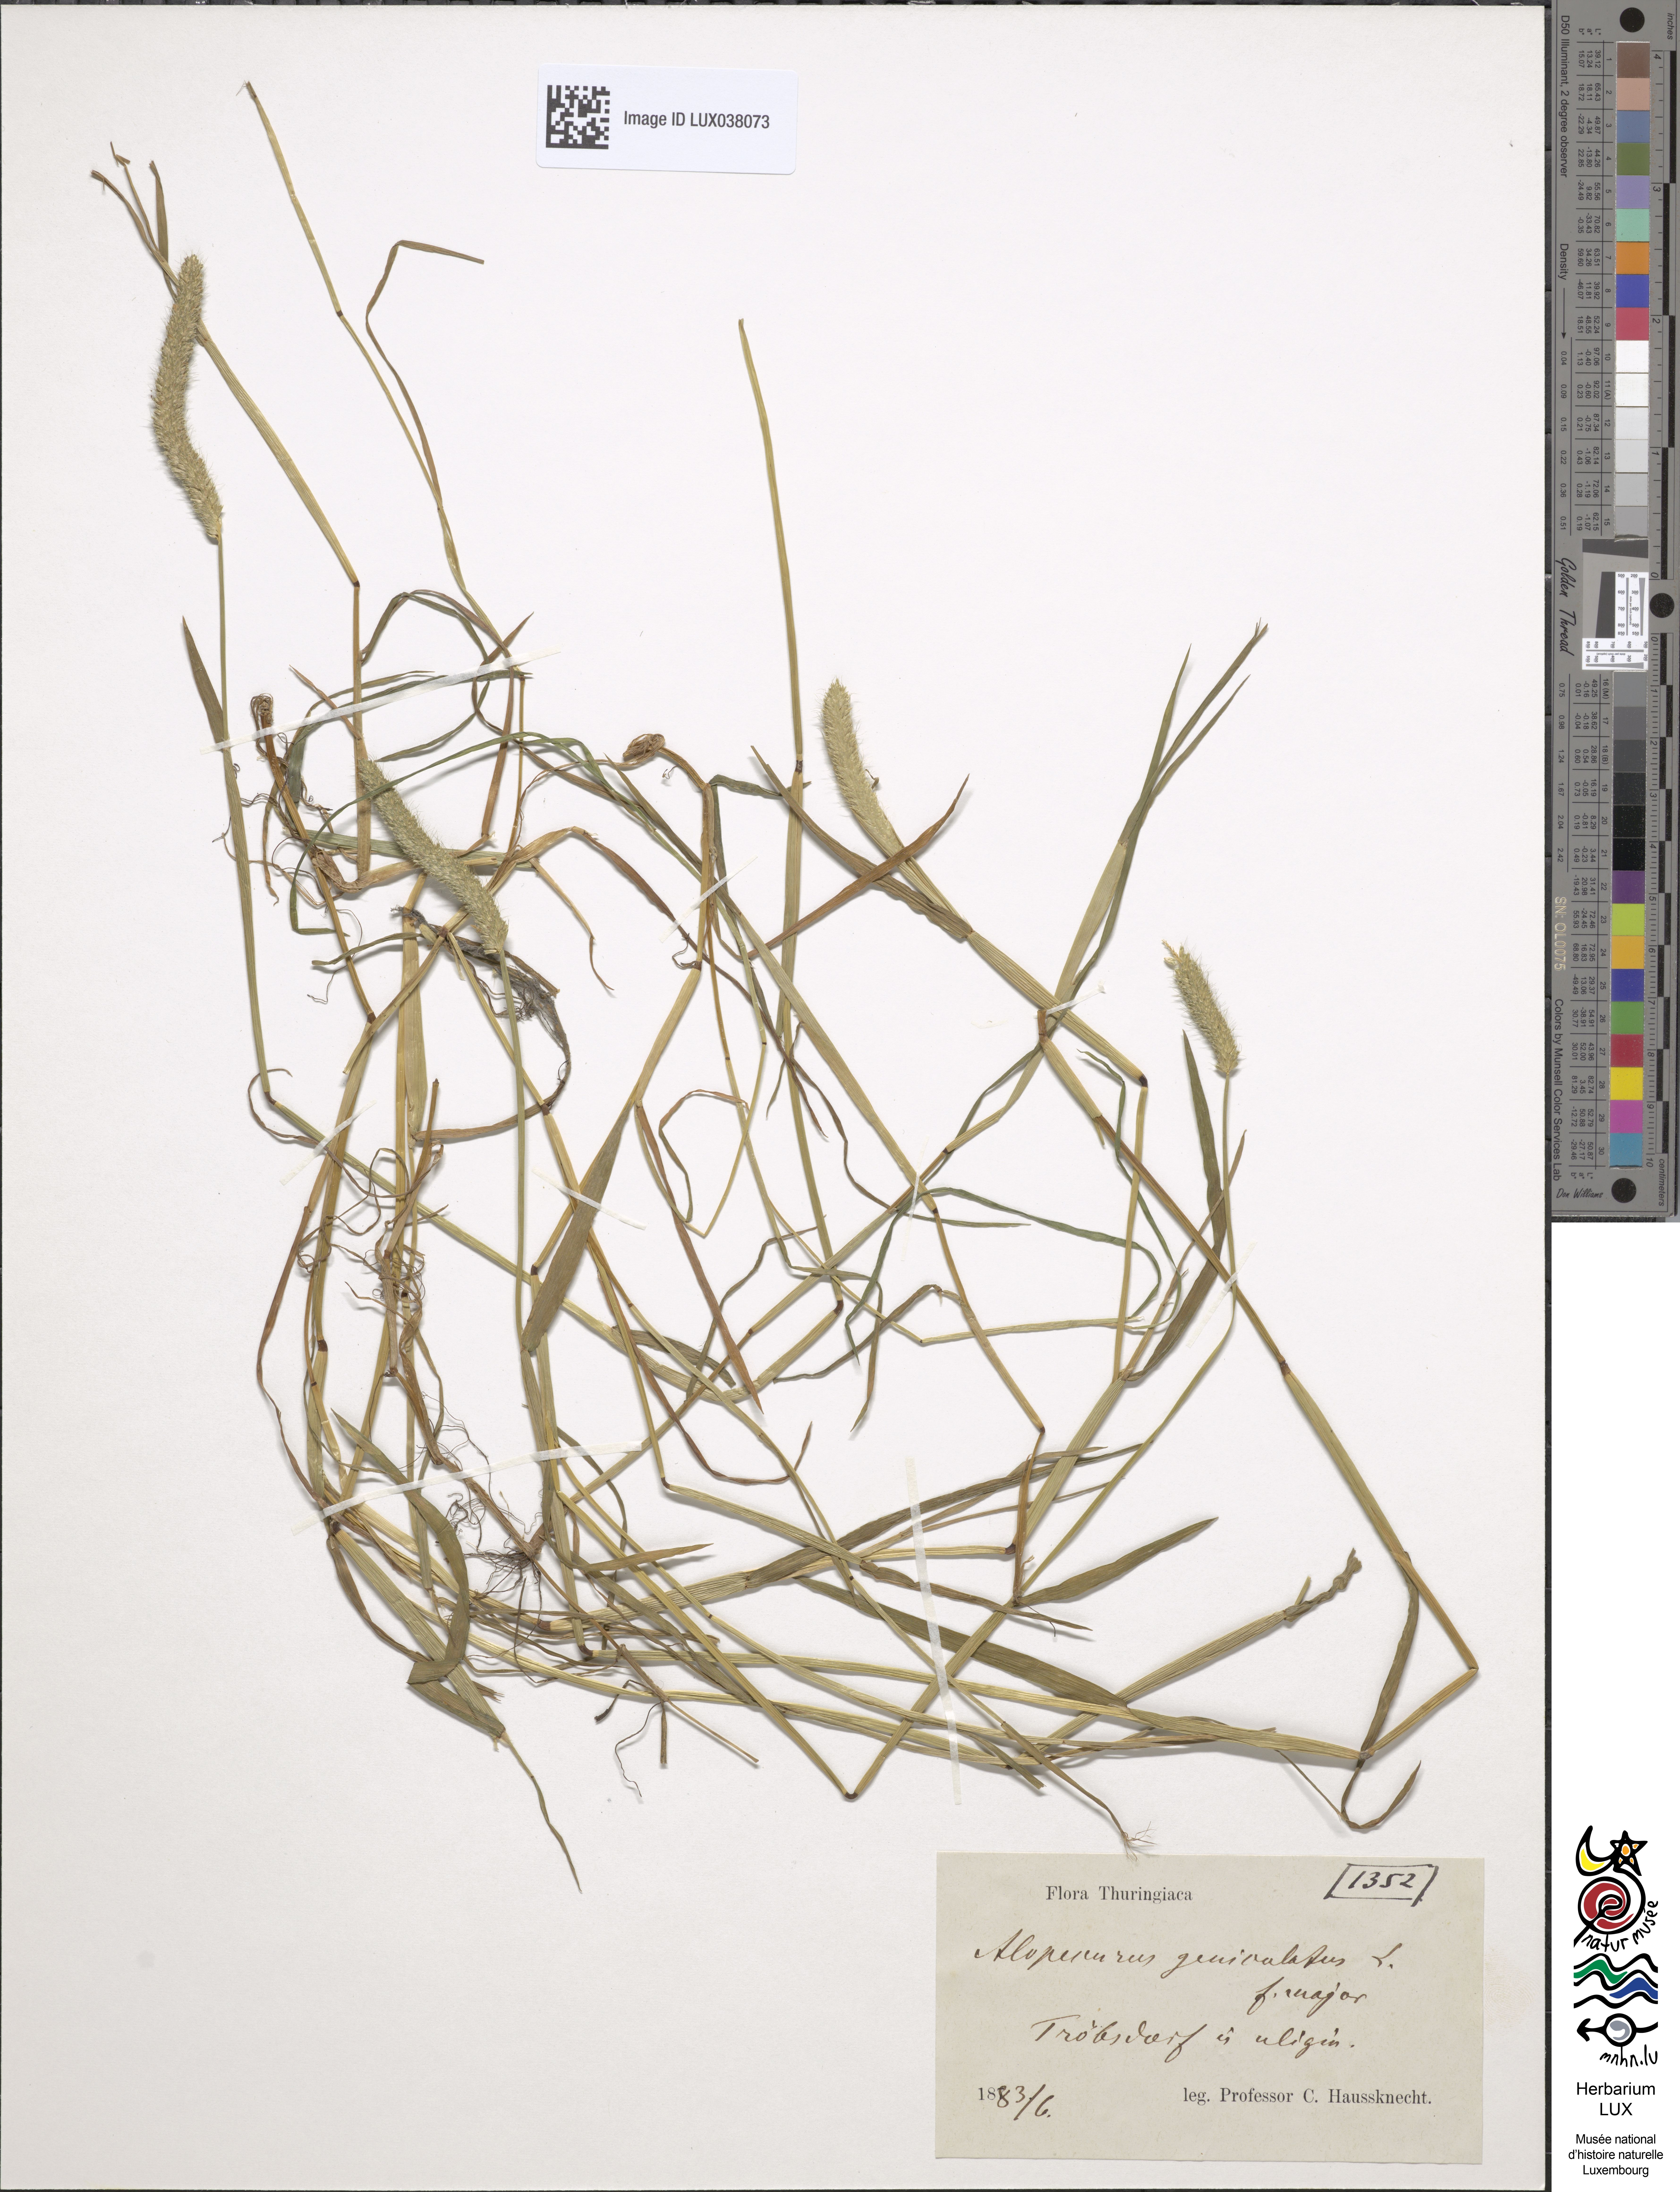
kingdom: Plantae
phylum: Tracheophyta
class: Liliopsida
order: Poales
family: Poaceae
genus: Alopecurus
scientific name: Alopecurus geniculatus
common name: Water foxtail
